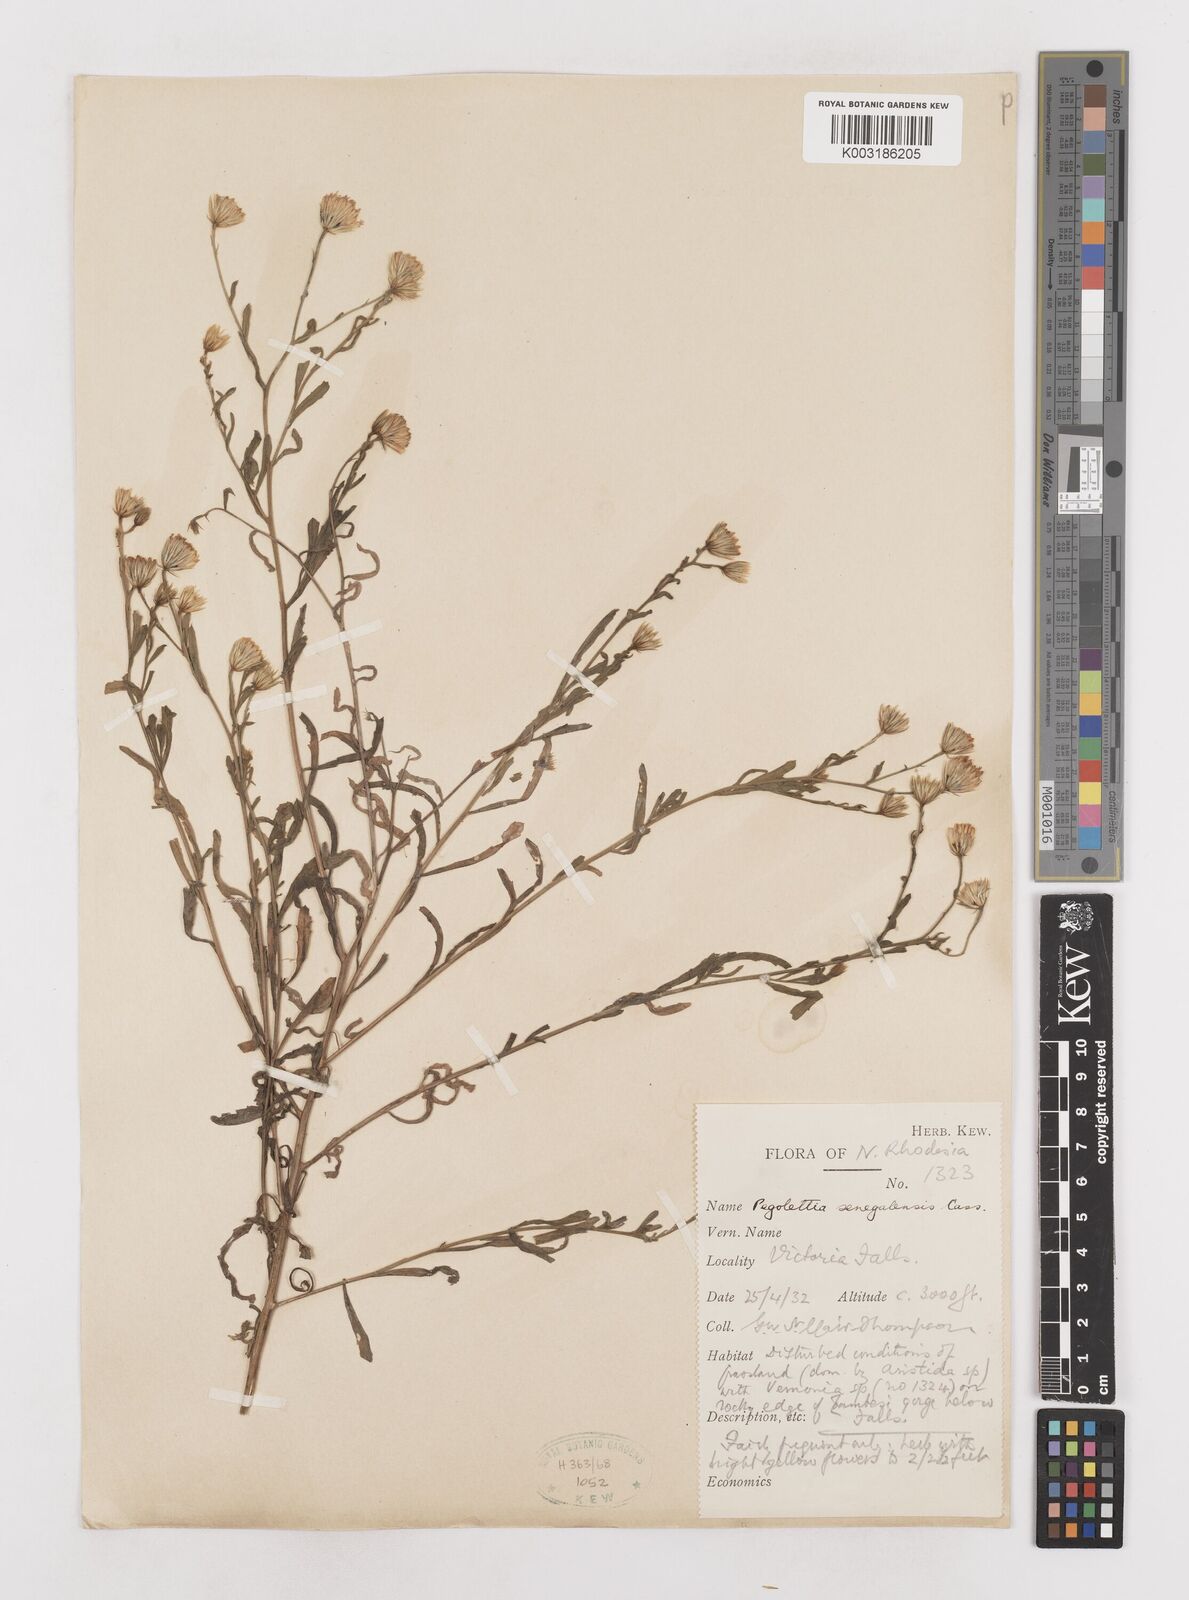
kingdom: Plantae
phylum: Tracheophyta
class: Magnoliopsida
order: Asterales
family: Asteraceae
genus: Pegolettia
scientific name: Pegolettia senegalensis
